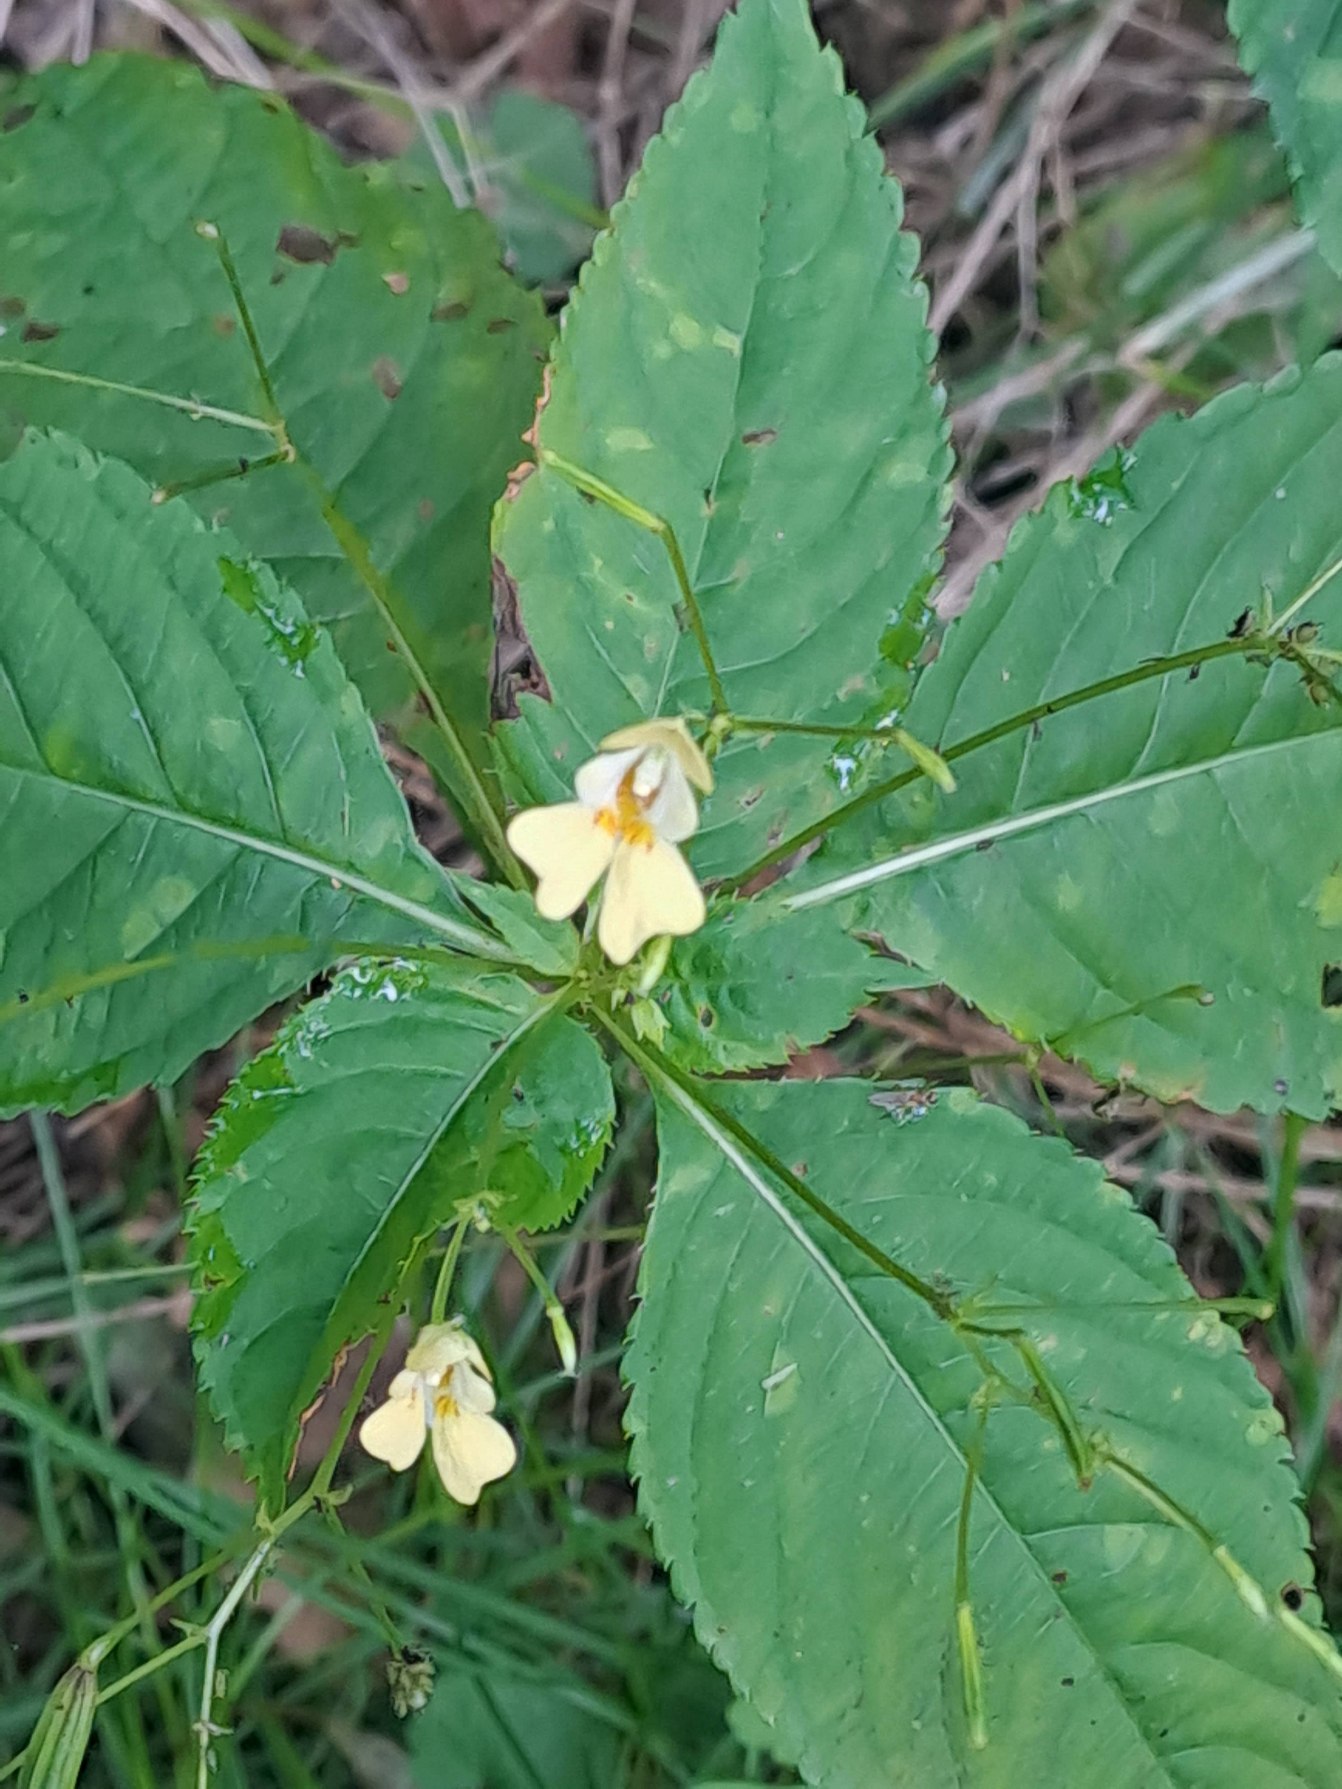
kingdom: Plantae
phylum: Tracheophyta
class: Magnoliopsida
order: Ericales
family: Balsaminaceae
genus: Impatiens
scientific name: Impatiens parviflora
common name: Småblomstret balsamin
